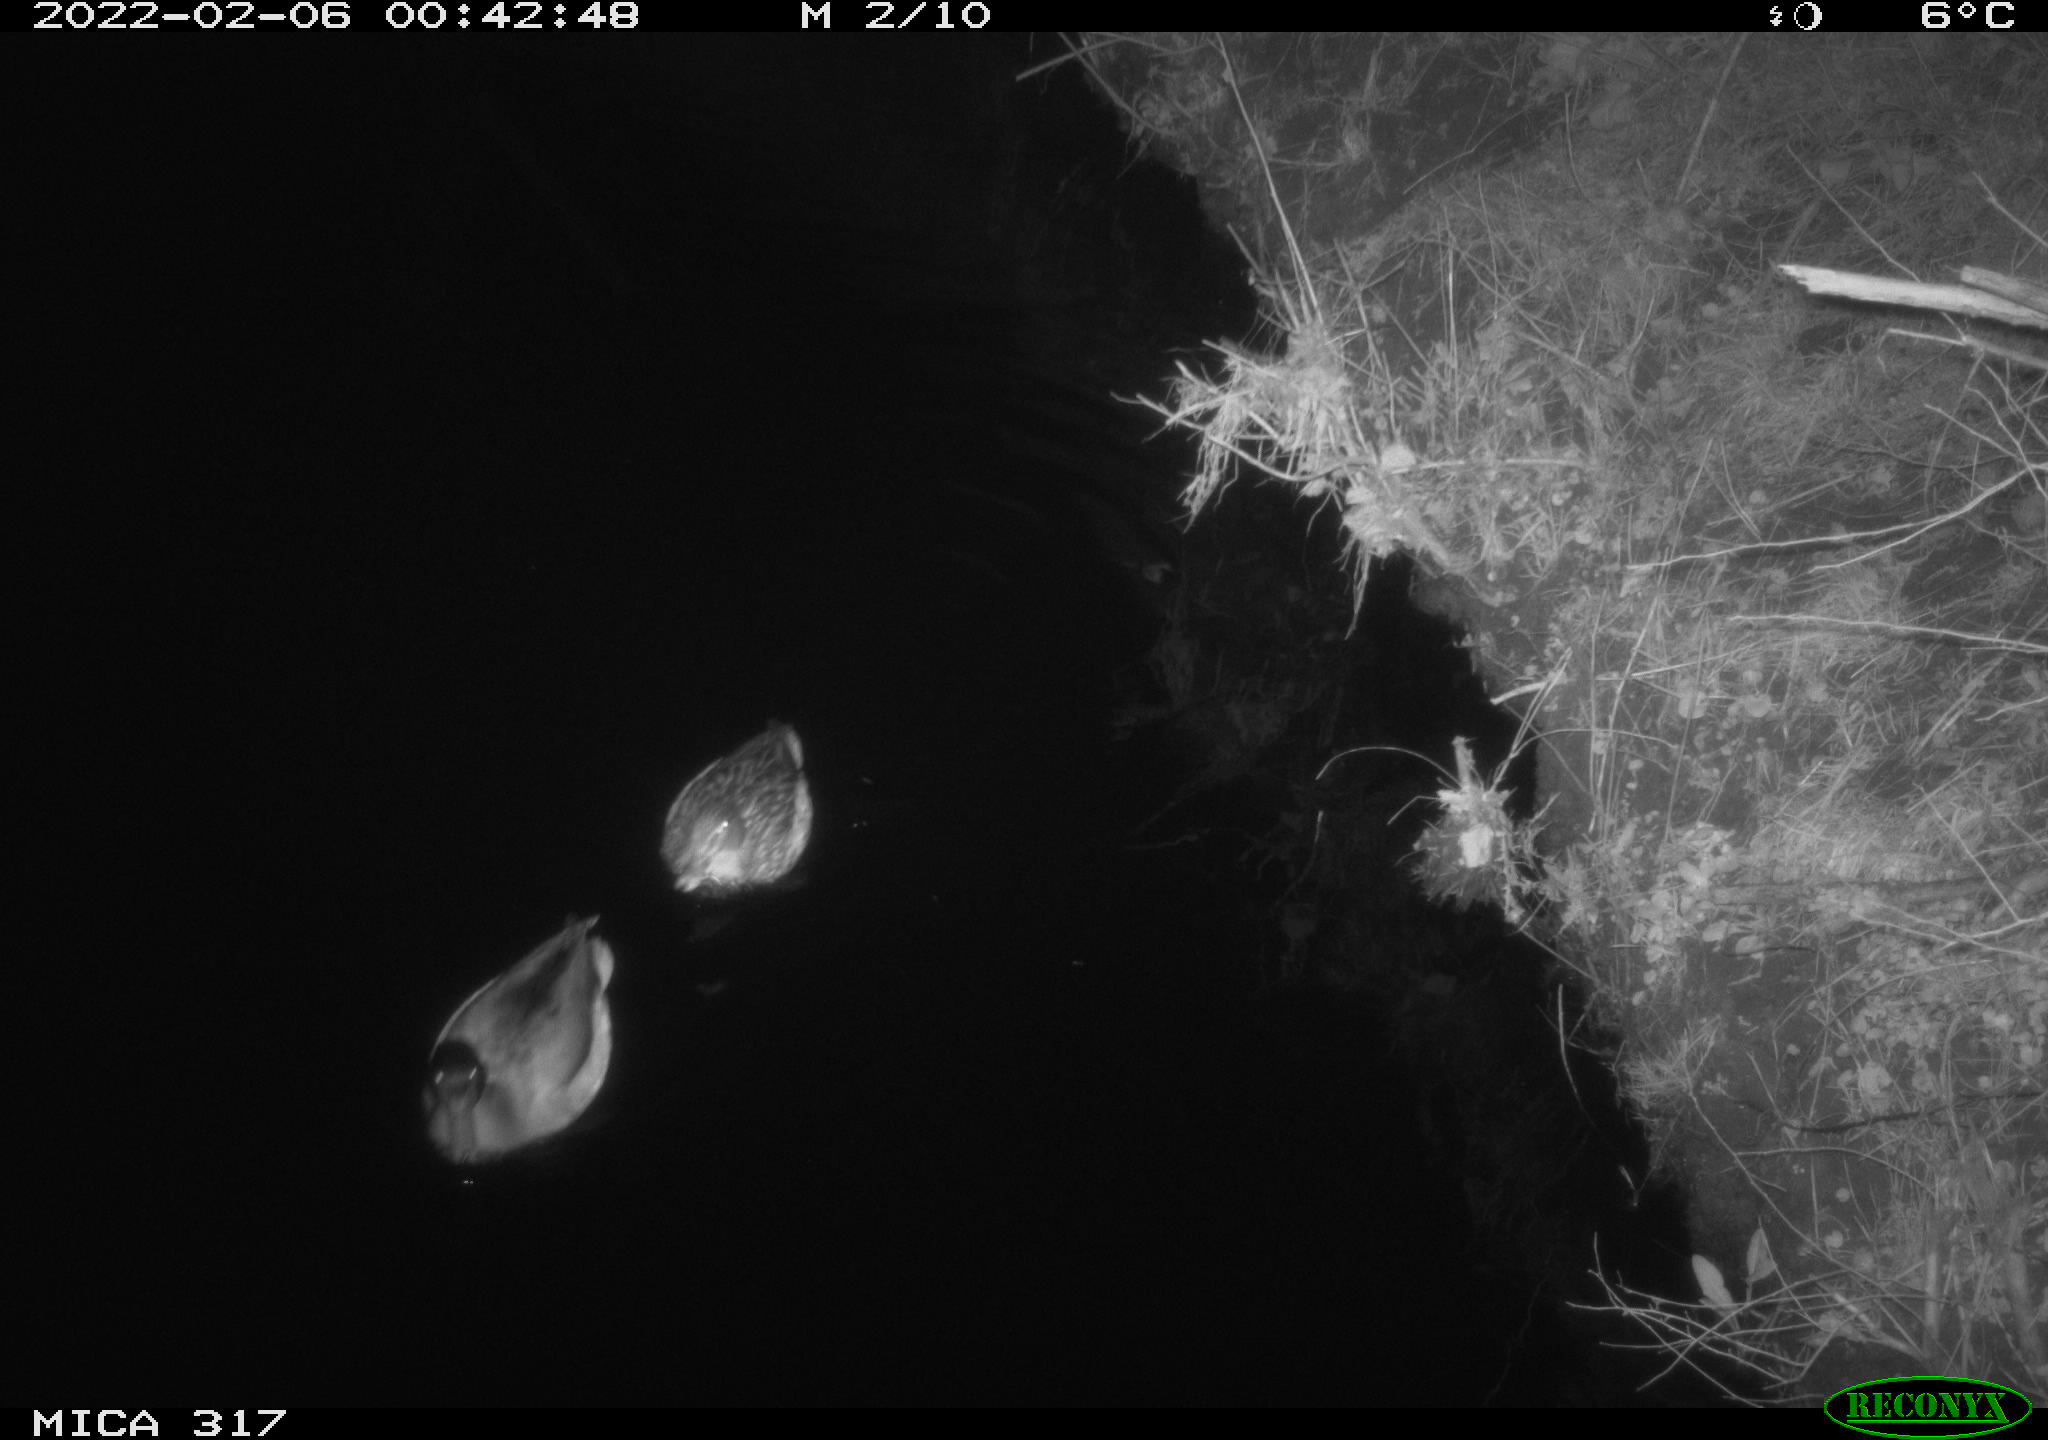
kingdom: Animalia
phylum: Chordata
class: Aves
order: Anseriformes
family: Anatidae
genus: Anas
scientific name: Anas platyrhynchos
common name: Mallard
